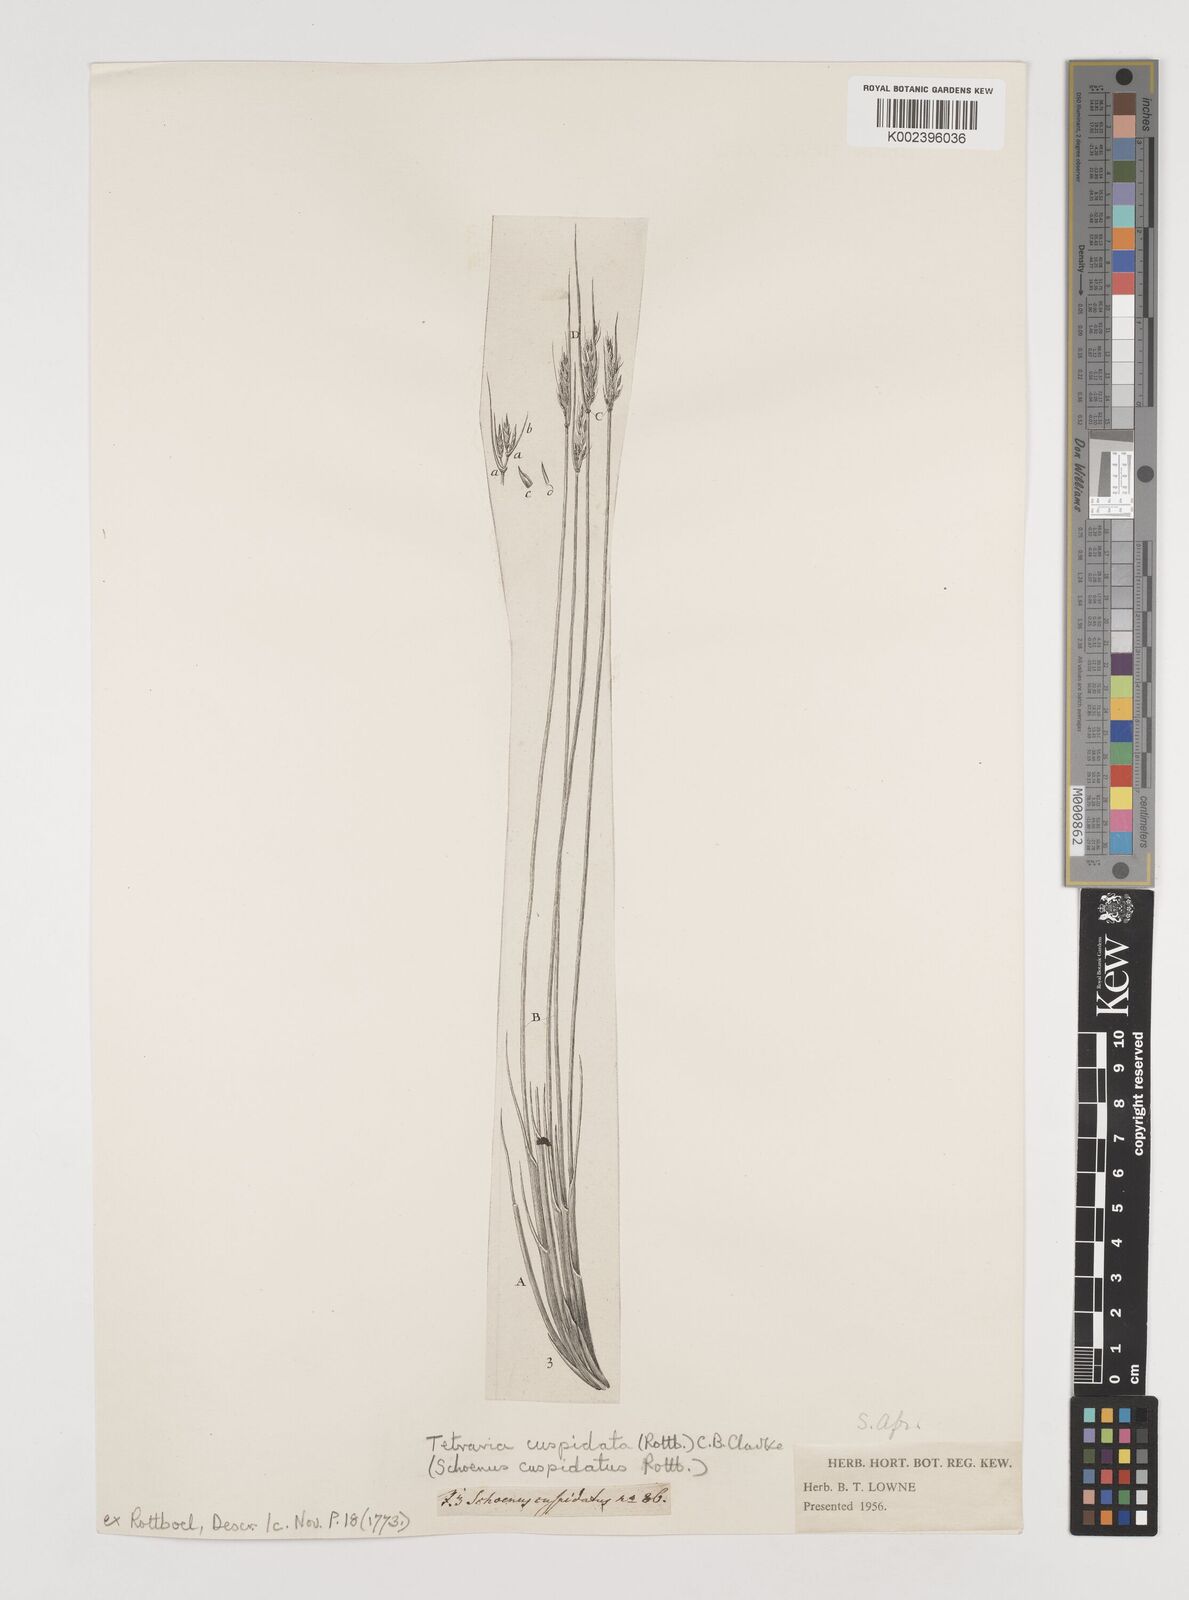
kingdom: Plantae
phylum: Tracheophyta
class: Liliopsida
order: Poales
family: Cyperaceae
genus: Schoenus
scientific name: Schoenus cuspidatus
